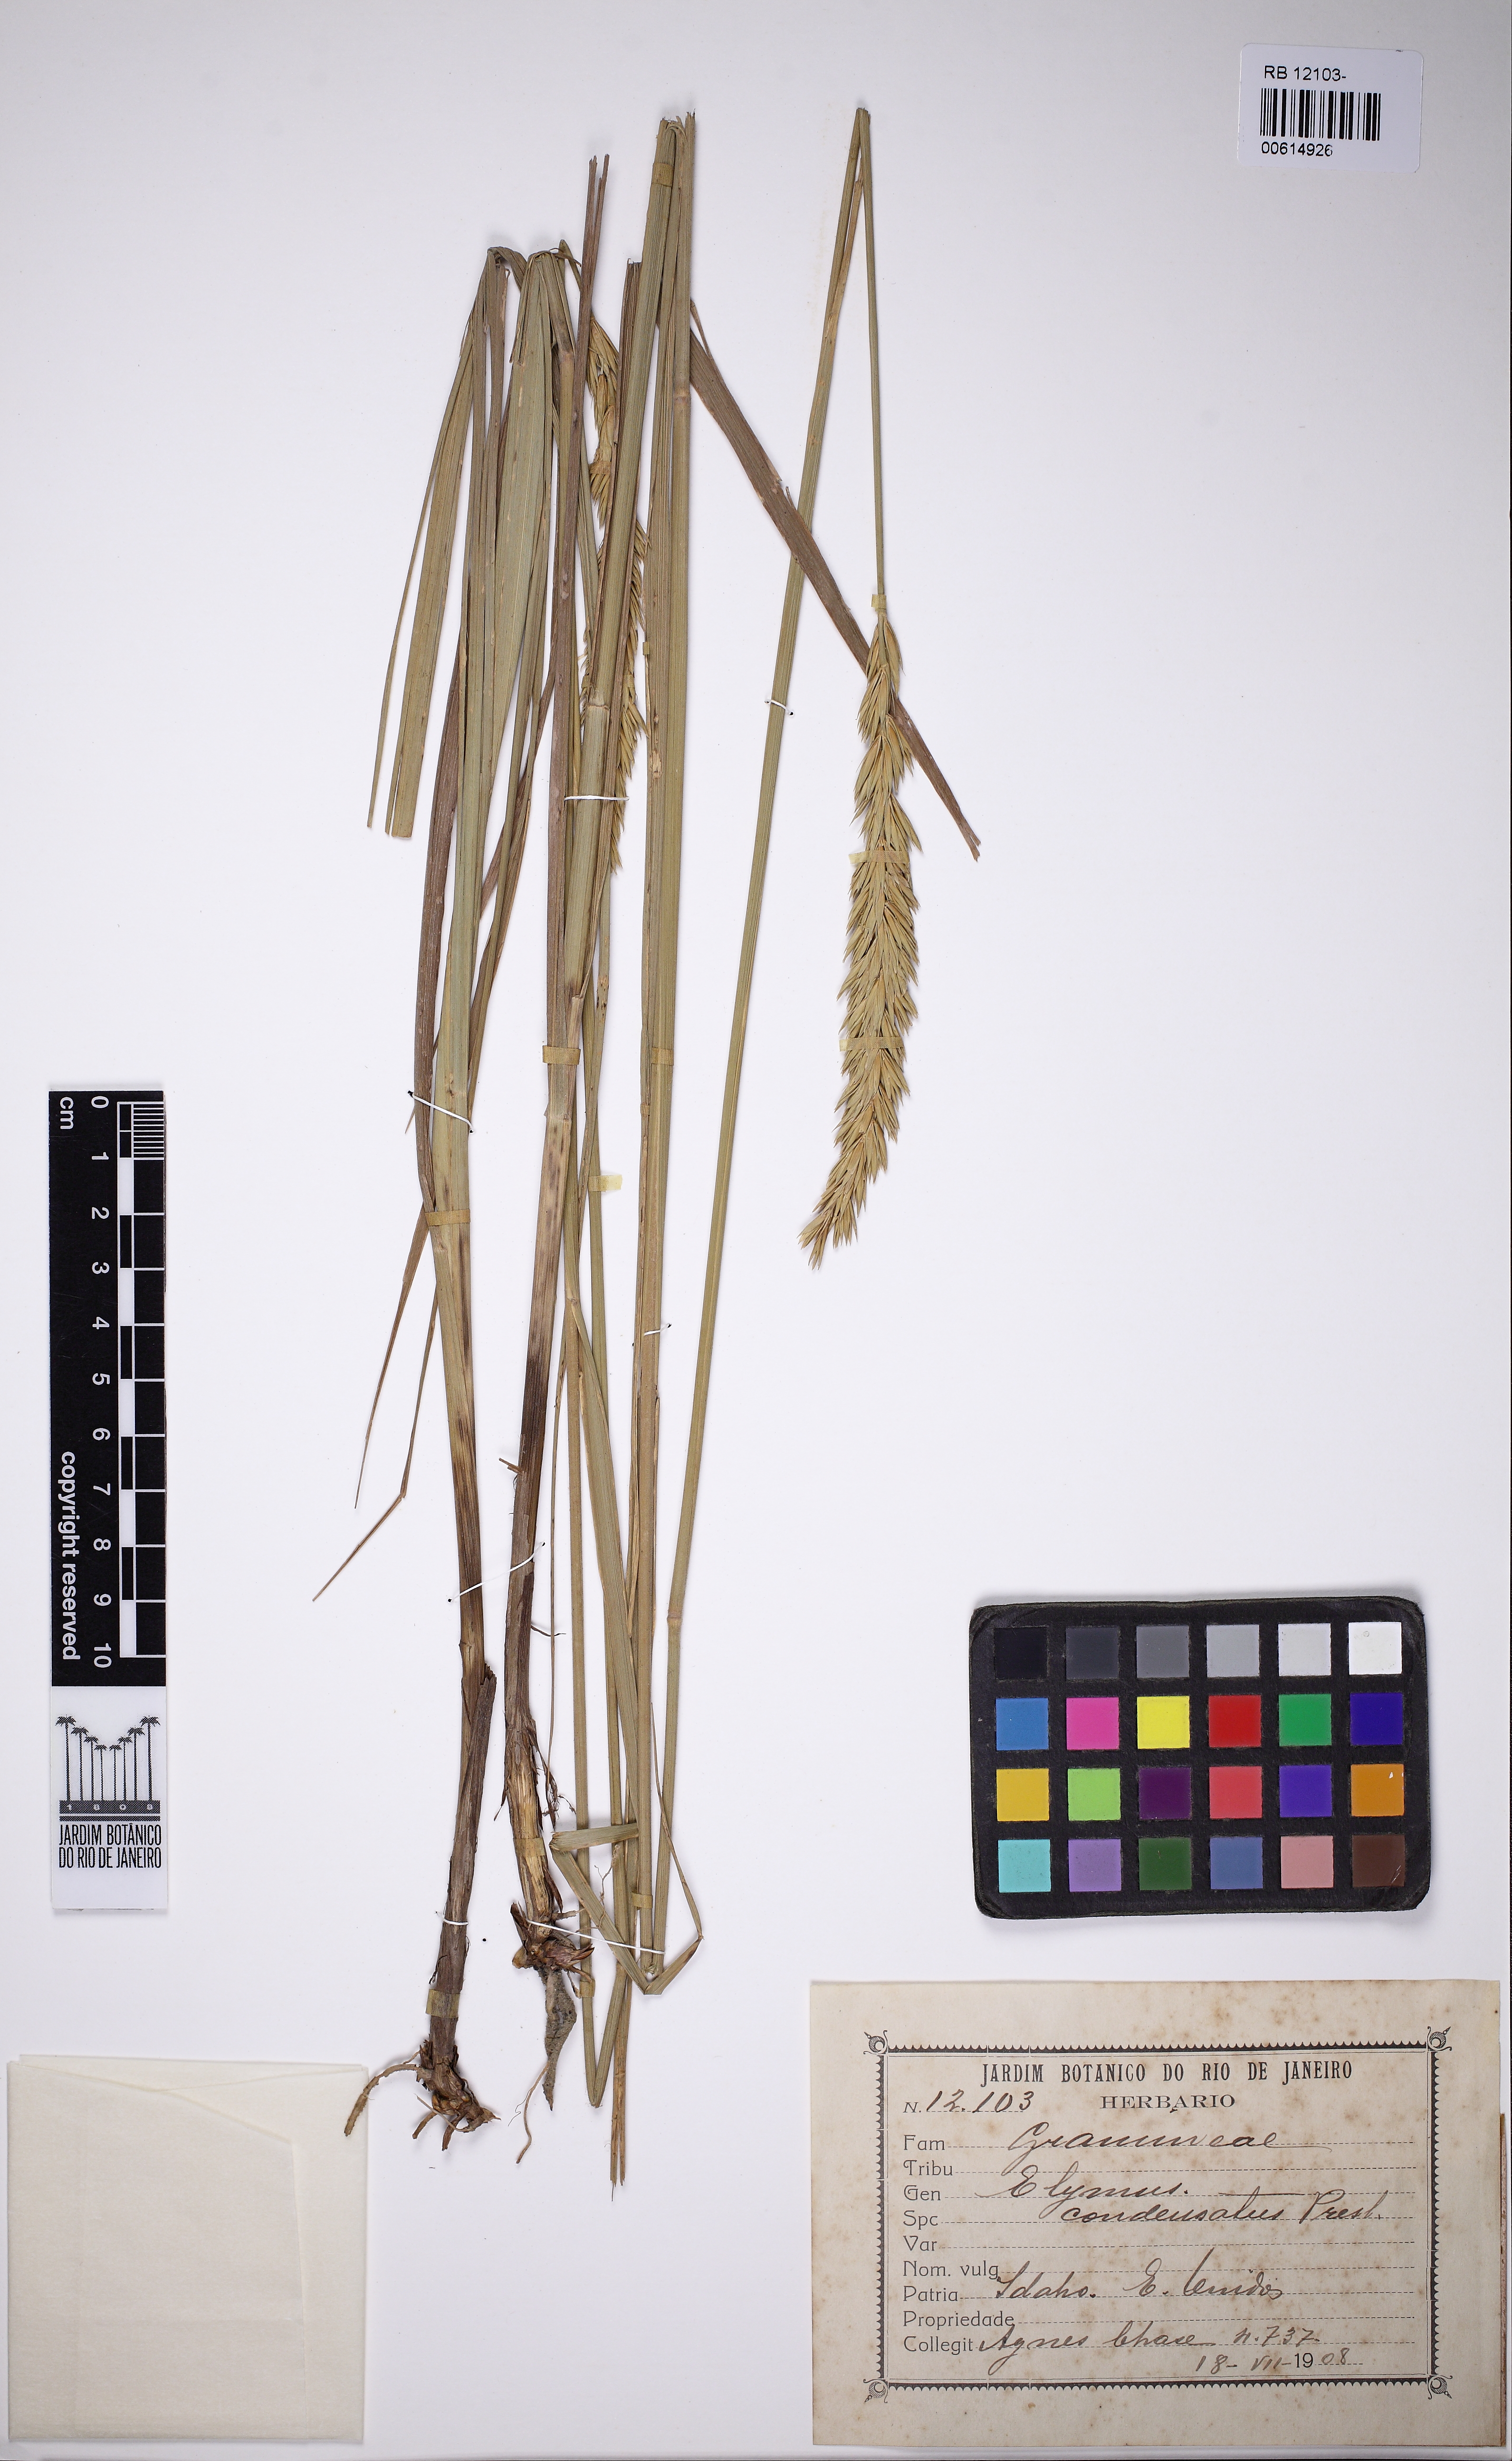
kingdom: Plantae
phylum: Tracheophyta
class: Liliopsida
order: Poales
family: Poaceae
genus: Leymus
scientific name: Leymus condensatus
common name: Giant wild rye
